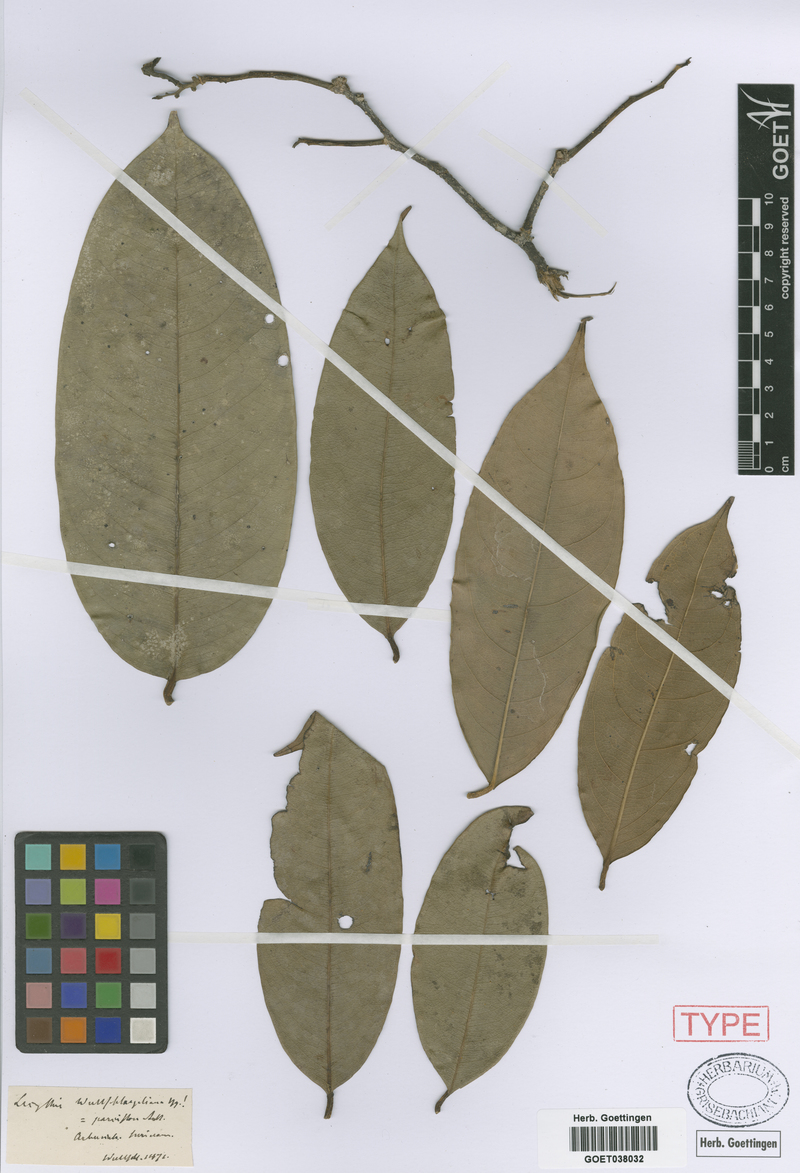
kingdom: Plantae
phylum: Tracheophyta
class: Magnoliopsida
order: Ericales
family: Lecythidaceae
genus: Eschweilera
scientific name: Eschweilera pedicellata
